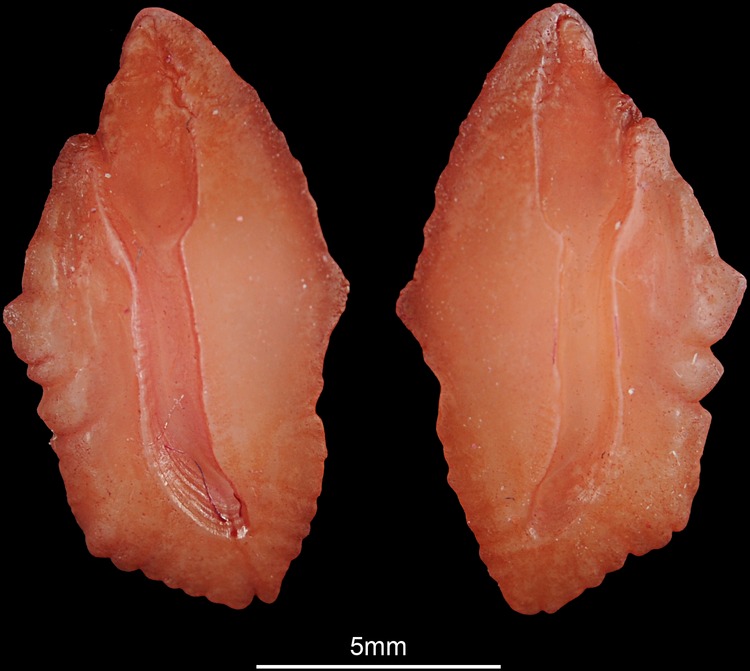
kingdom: Animalia
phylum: Chordata
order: Perciformes
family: Sparidae
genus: Argyrozona
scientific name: Argyrozona argyrozona
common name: Carpenter
